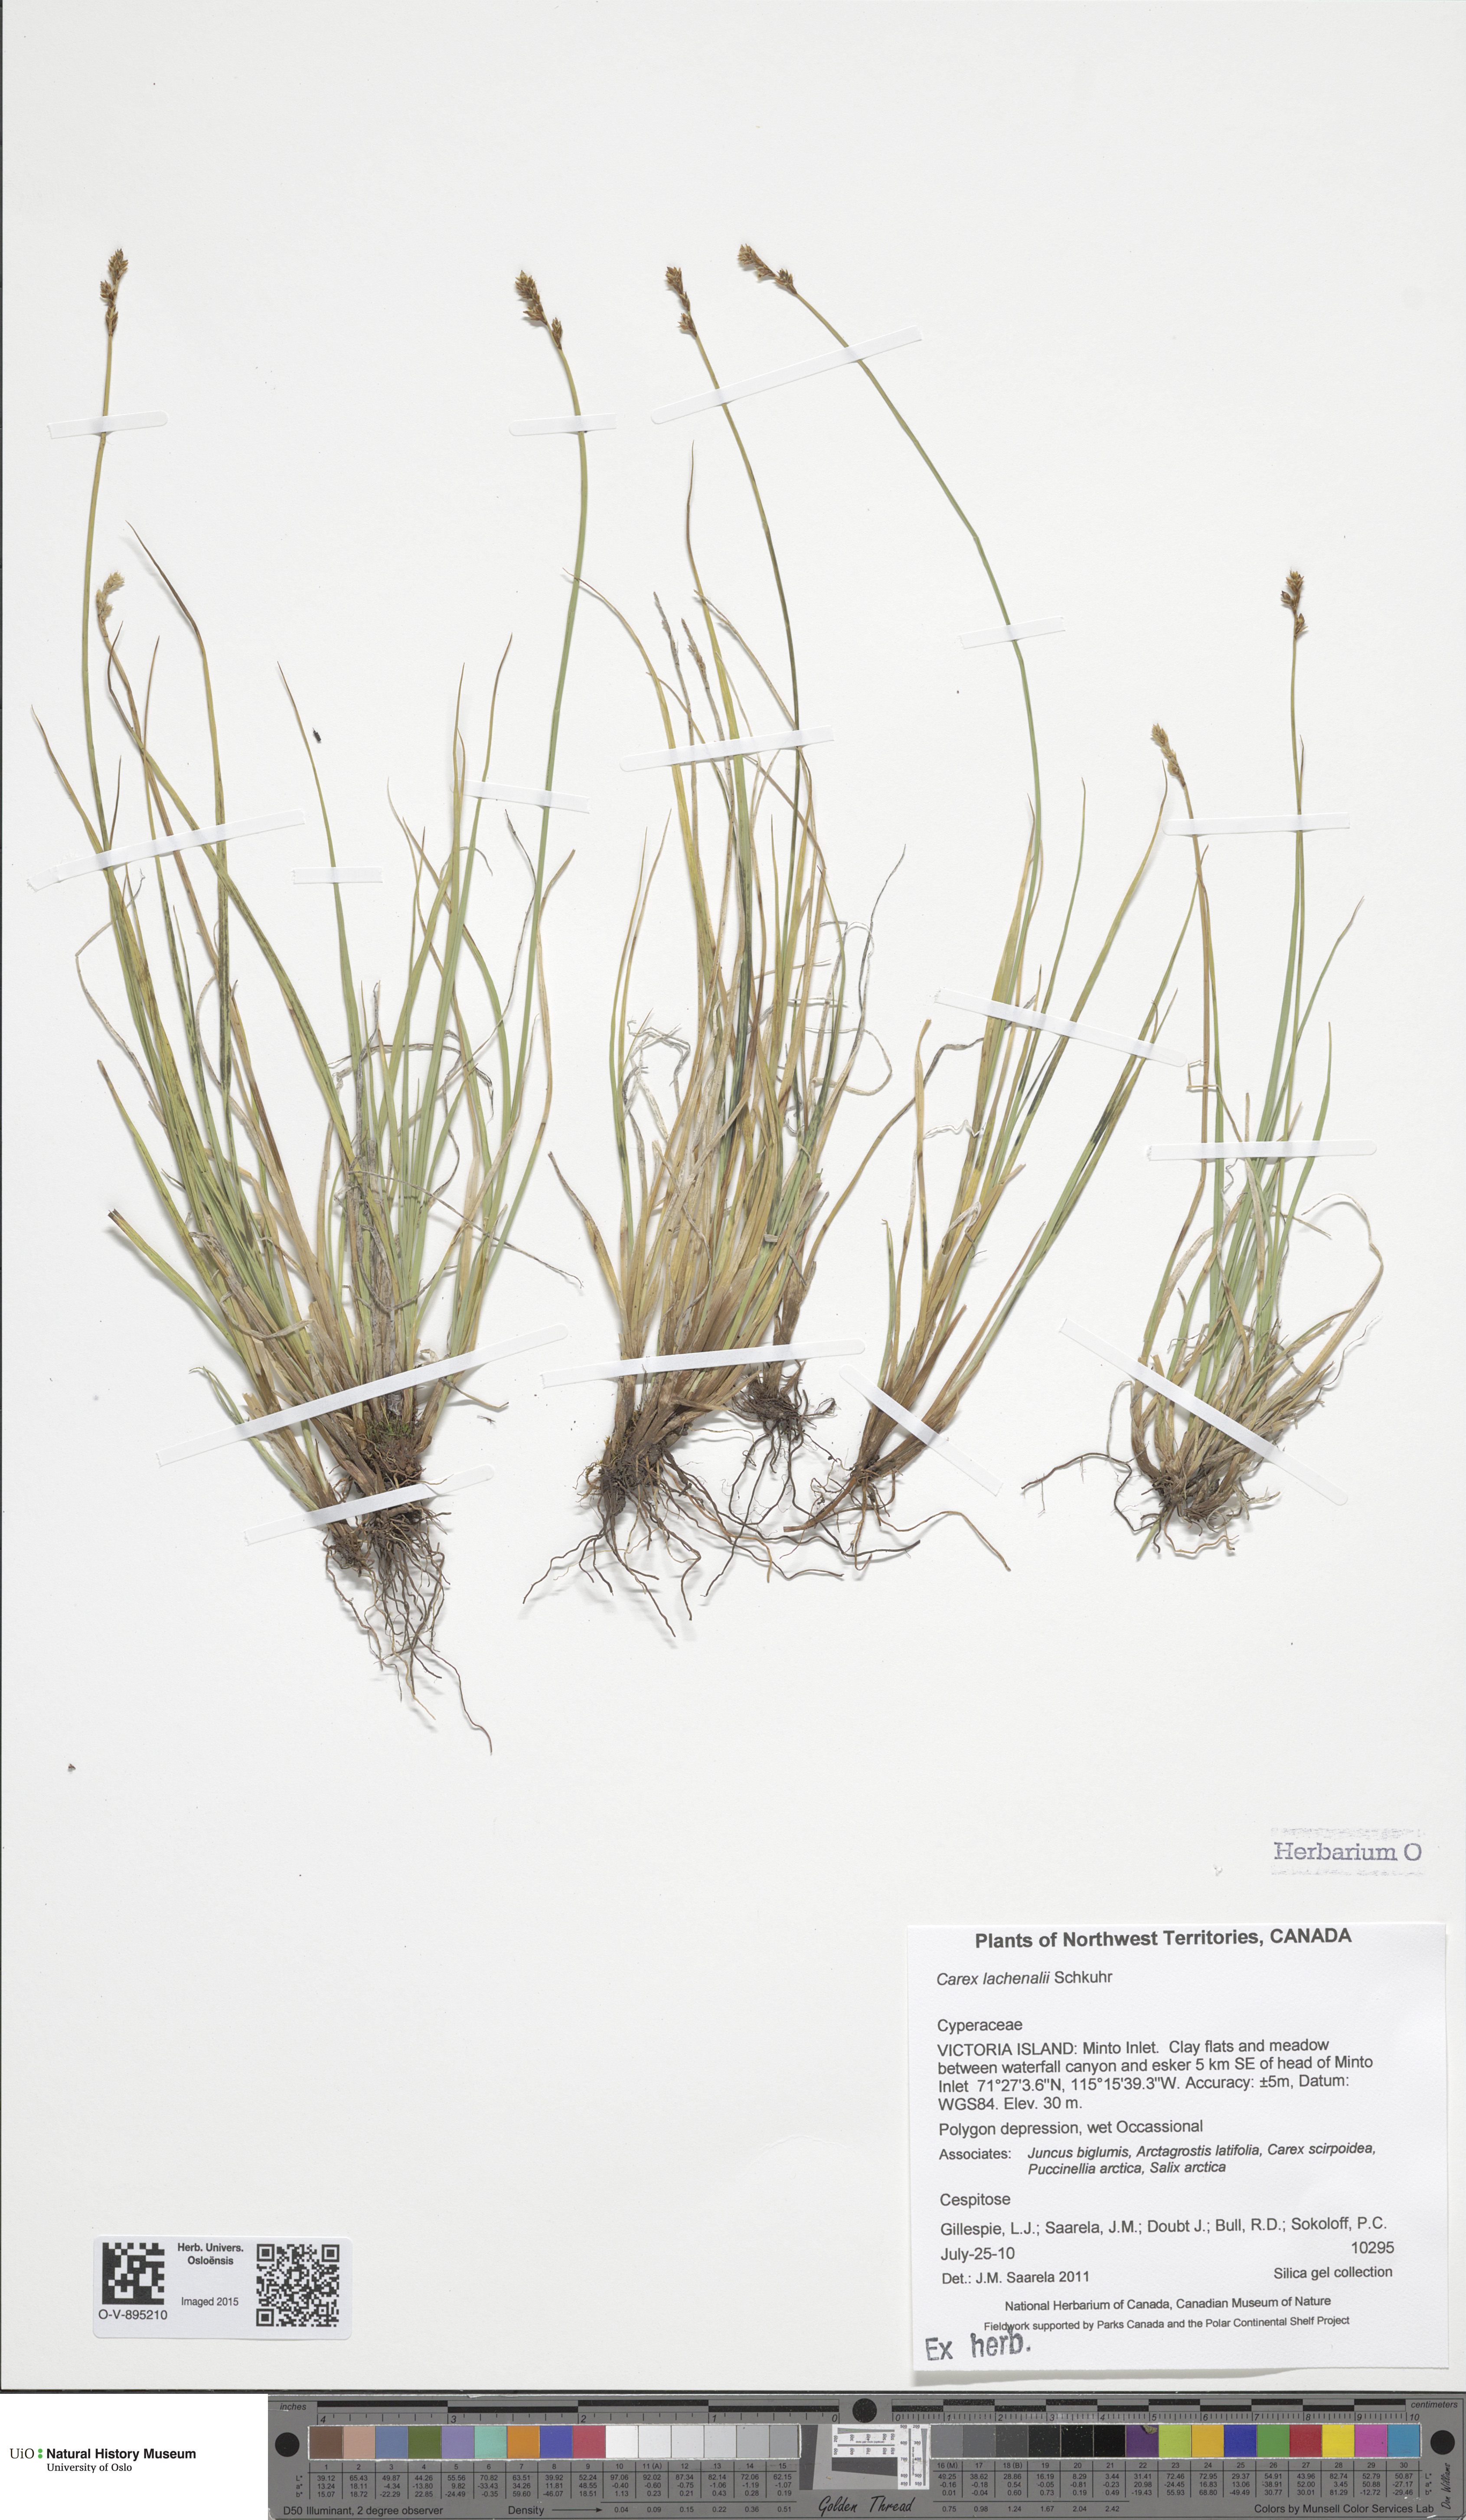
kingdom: Plantae
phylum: Tracheophyta
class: Liliopsida
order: Poales
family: Cyperaceae
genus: Carex
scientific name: Carex marina
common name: Seashore sedge
